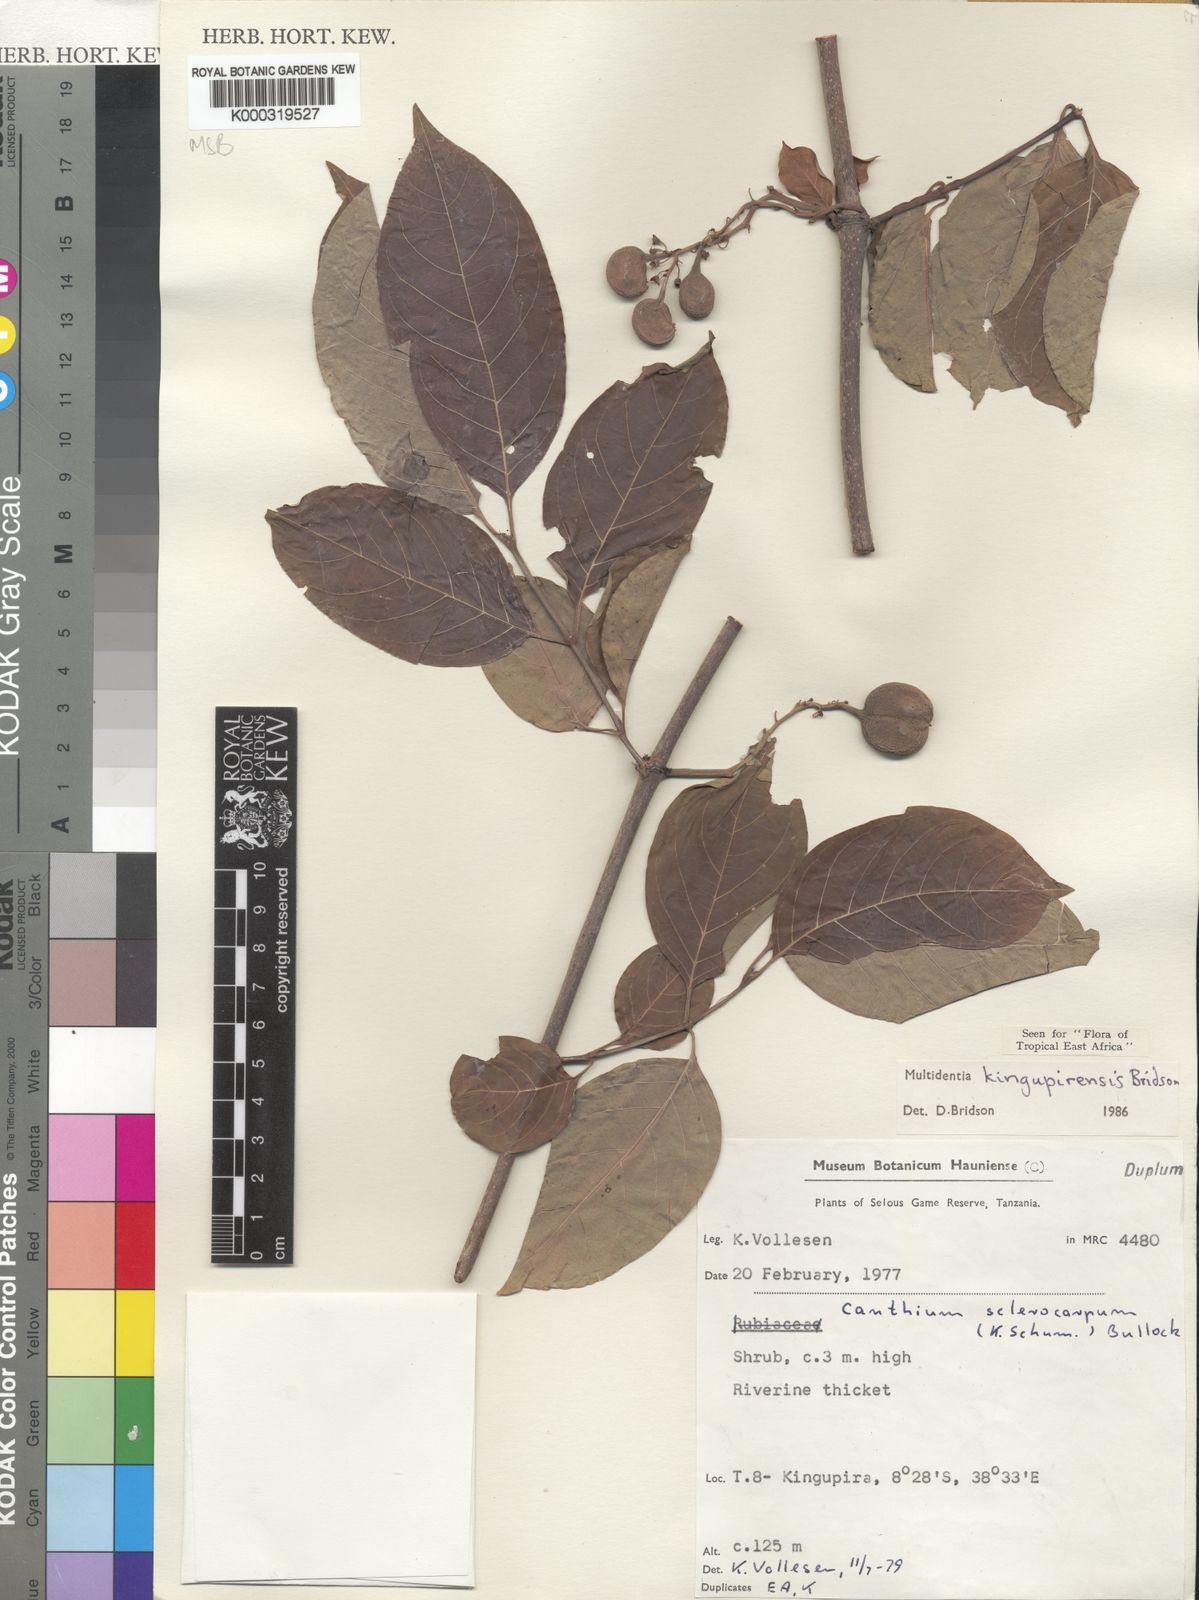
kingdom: Plantae
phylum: Tracheophyta
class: Magnoliopsida
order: Gentianales
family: Rubiaceae
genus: Multidentia
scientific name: Multidentia kingupirensis
